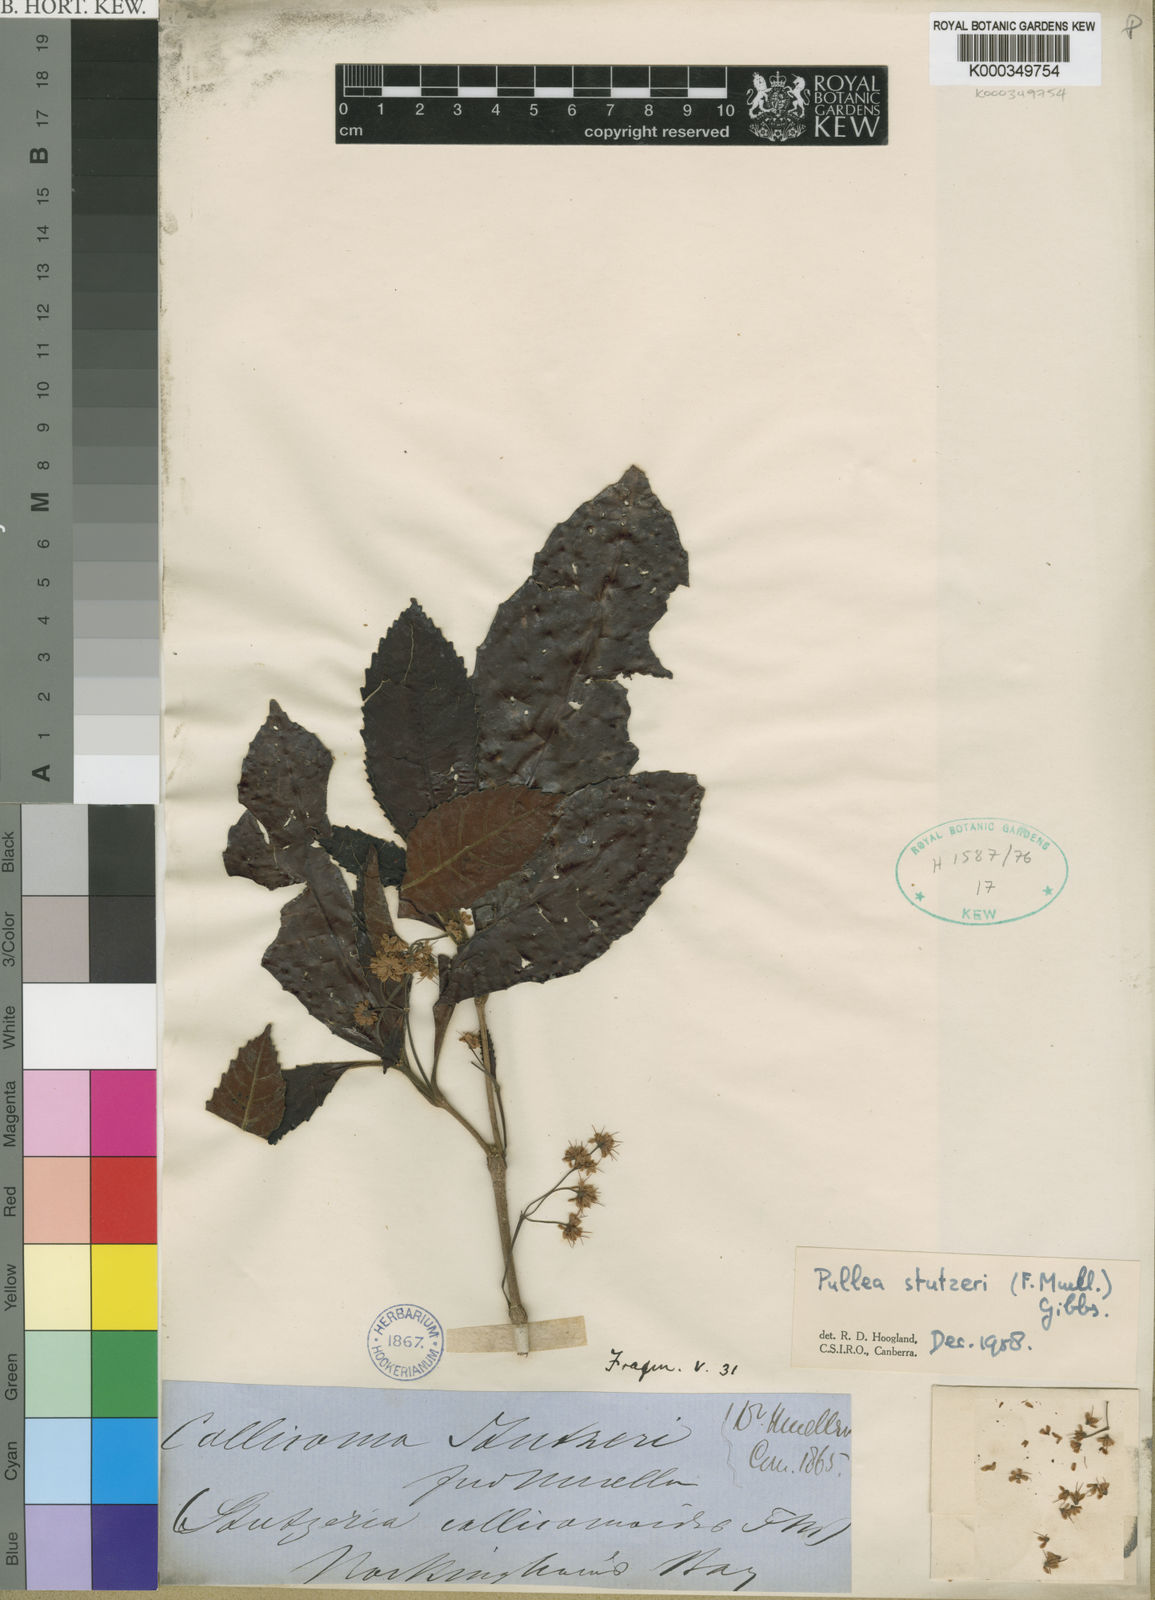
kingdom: Plantae
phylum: Tracheophyta
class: Magnoliopsida
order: Oxalidales
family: Cunoniaceae
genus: Pullea
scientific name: Pullea stutzeri
